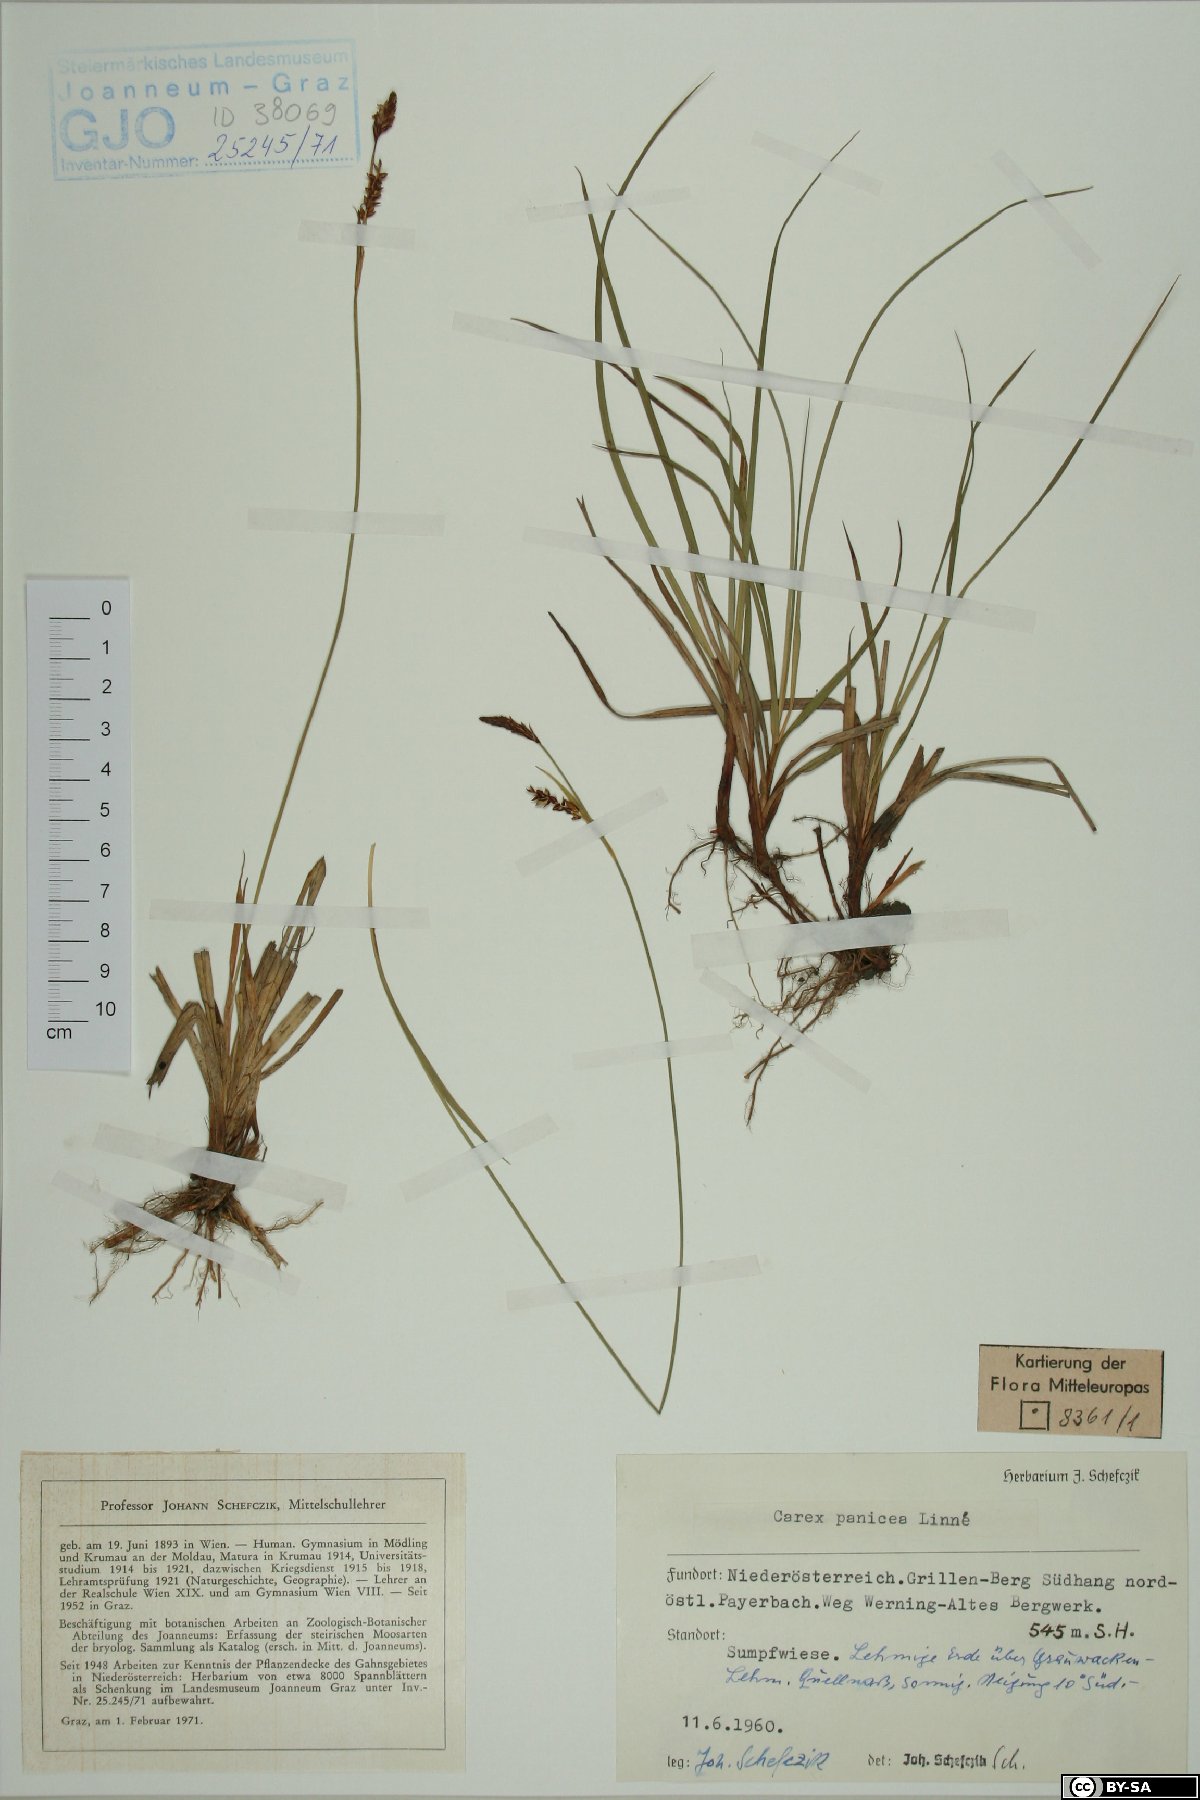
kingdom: Plantae
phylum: Tracheophyta
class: Liliopsida
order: Poales
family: Cyperaceae
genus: Carex
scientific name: Carex panicea
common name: Carnation sedge
